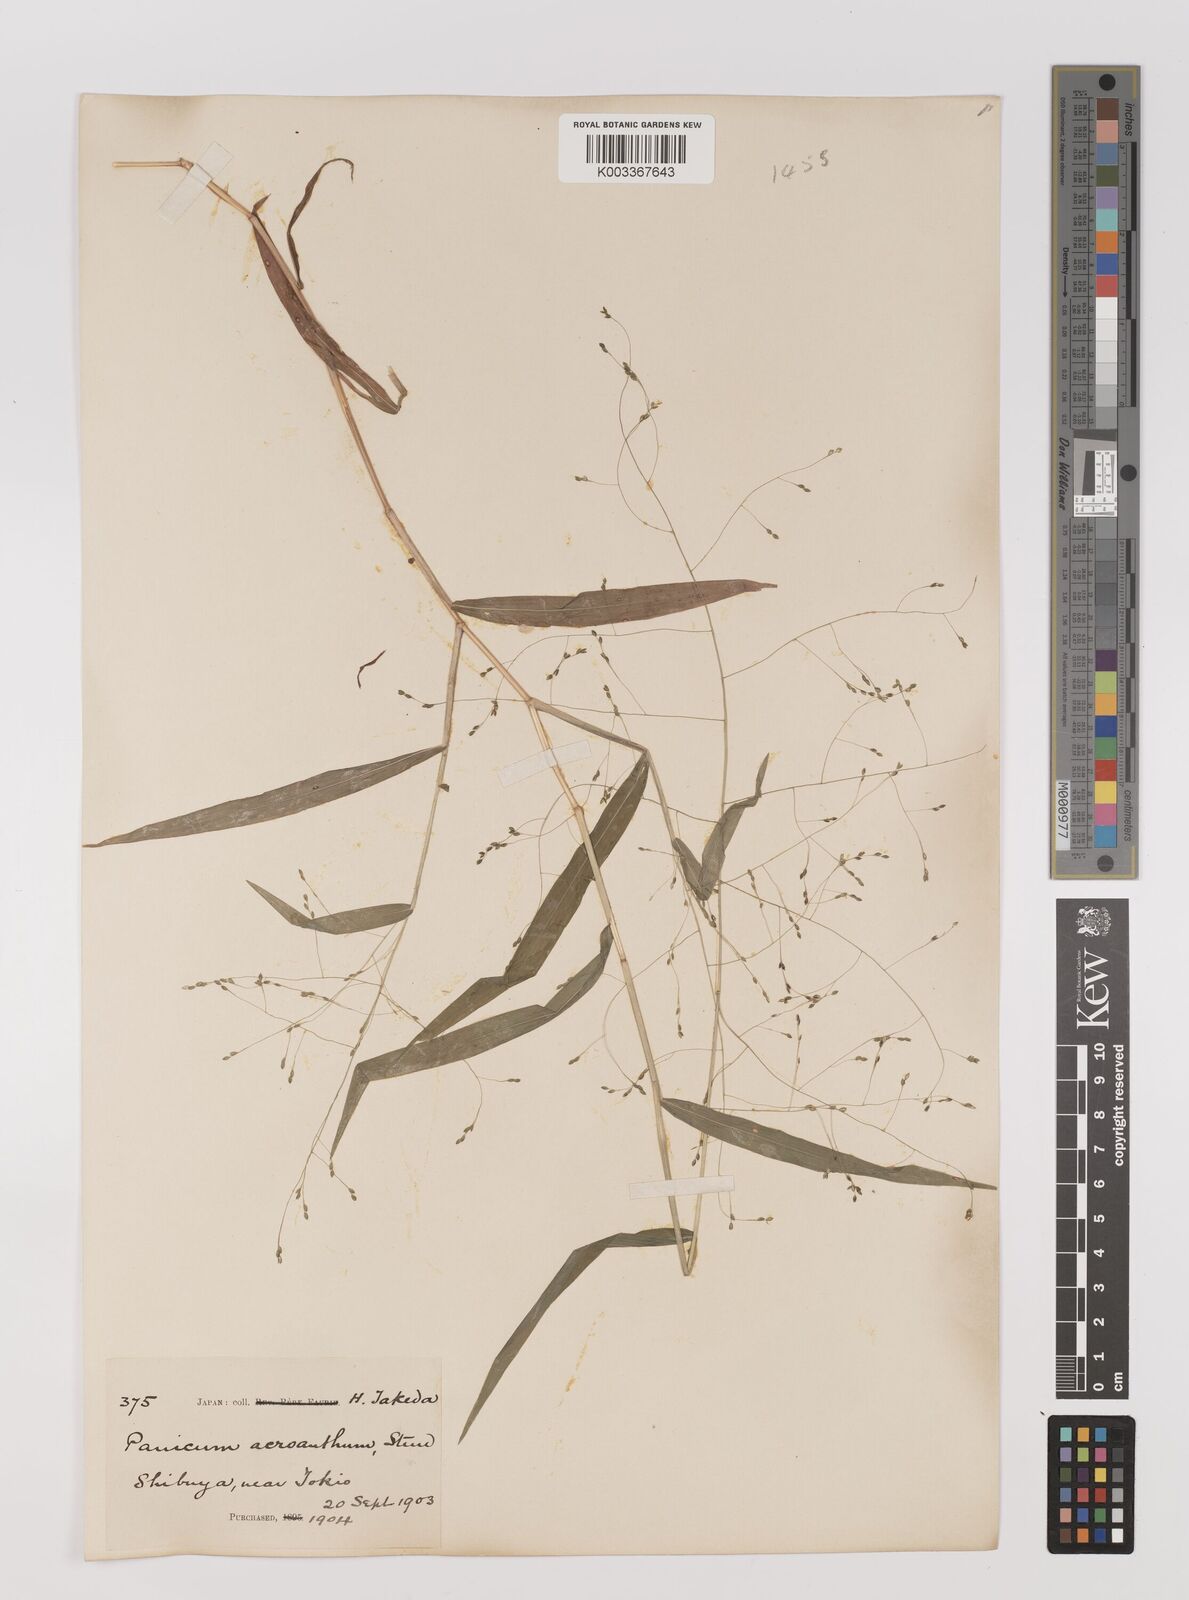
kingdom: Plantae
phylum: Tracheophyta
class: Liliopsida
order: Poales
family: Poaceae
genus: Panicum
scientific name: Panicum bisulcatum
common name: Japanese panicgrass
